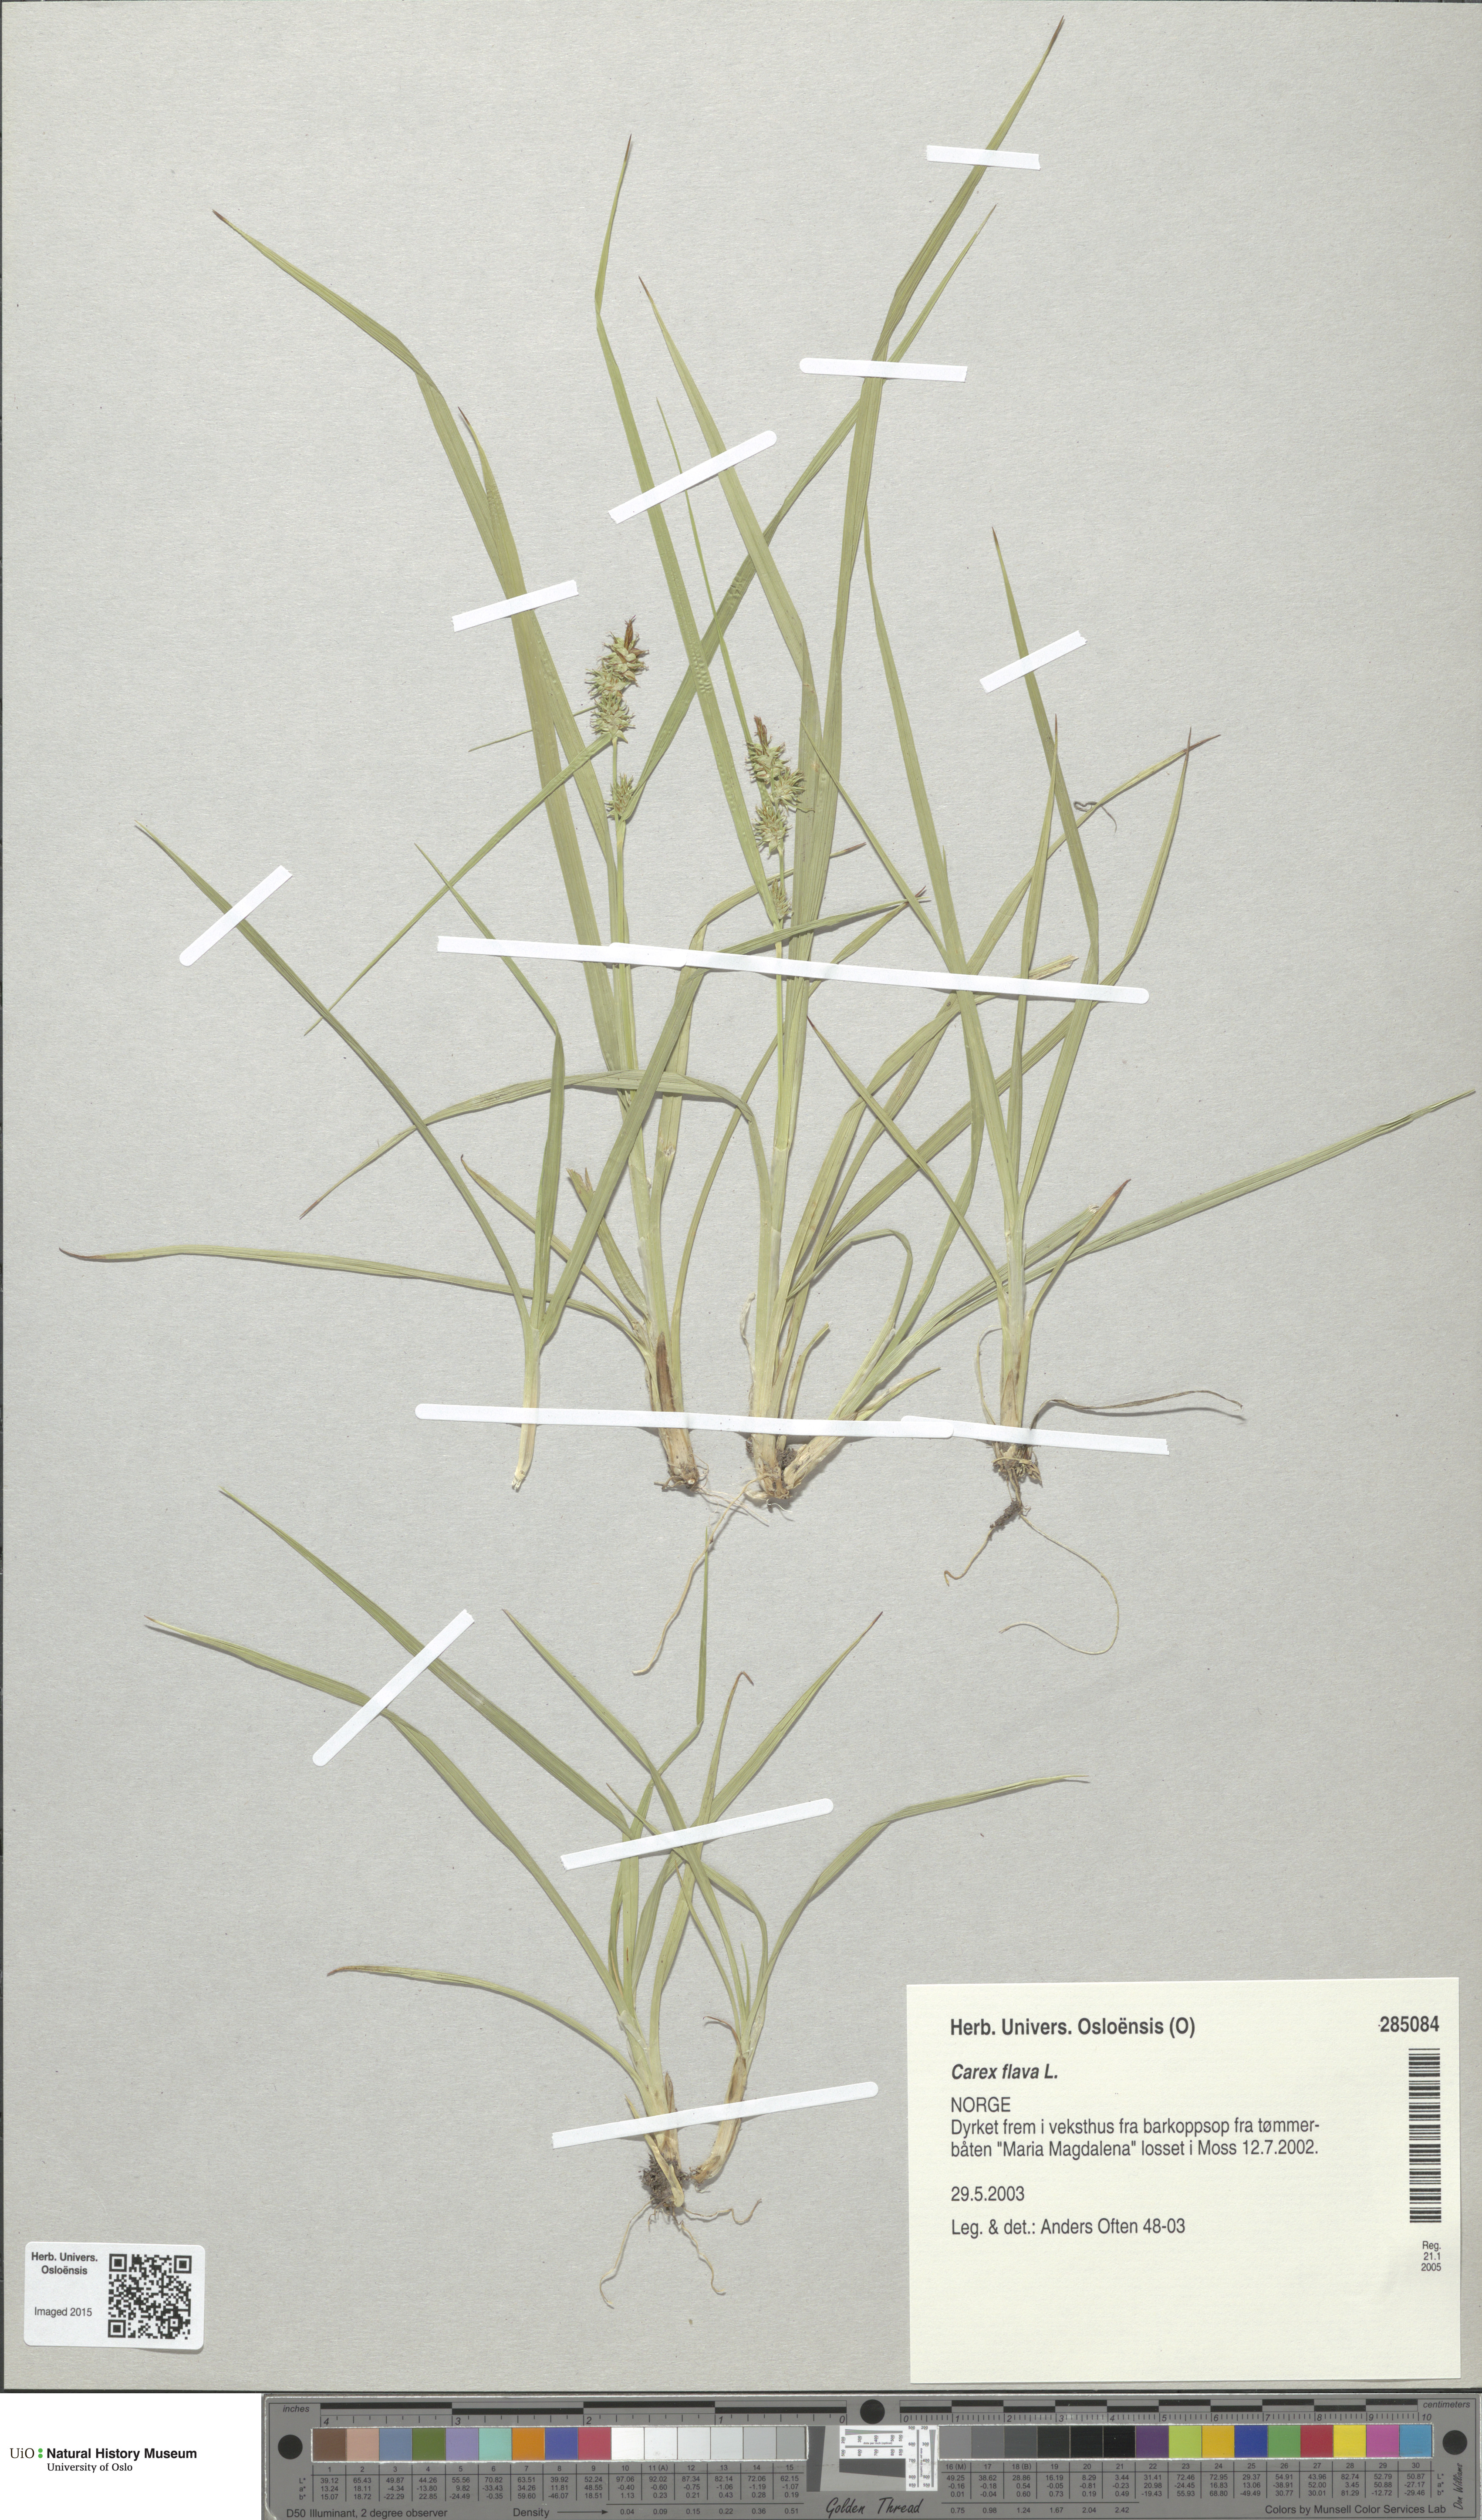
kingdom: Plantae
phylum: Tracheophyta
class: Liliopsida
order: Poales
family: Cyperaceae
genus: Carex
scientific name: Carex flava
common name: Large yellow-sedge
